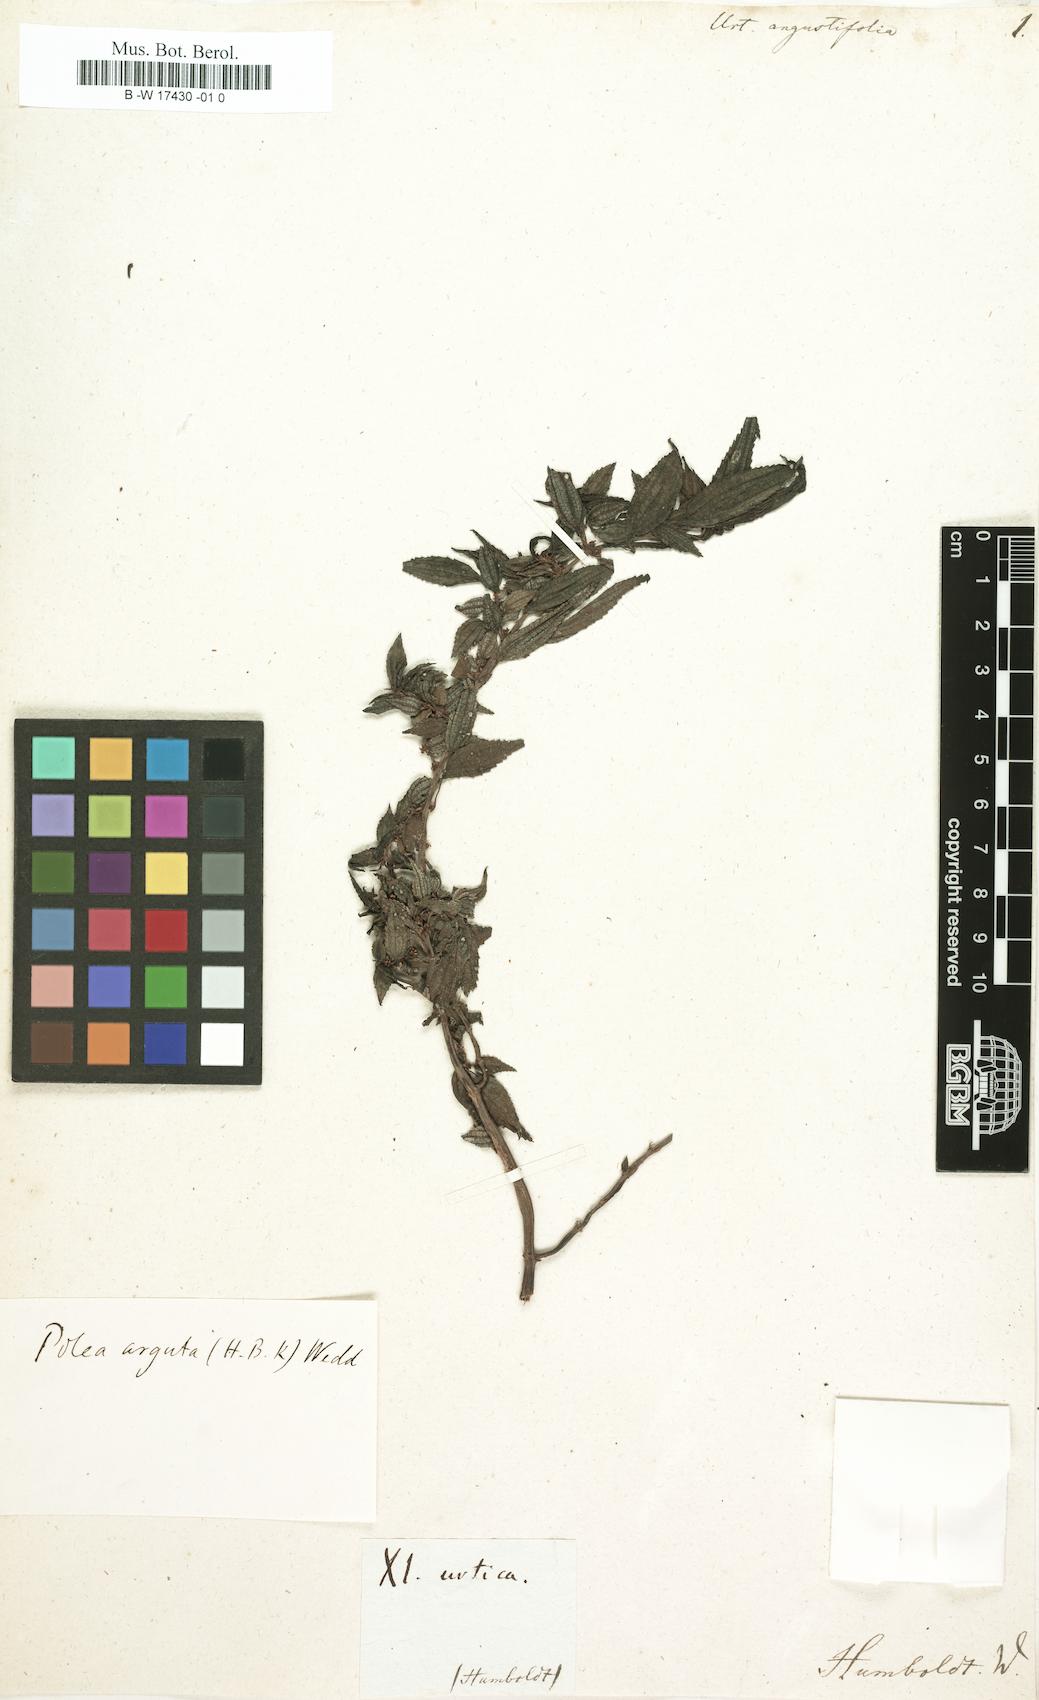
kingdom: Plantae
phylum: Tracheophyta
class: Magnoliopsida
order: Rosales
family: Urticaceae
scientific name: Urticaceae
